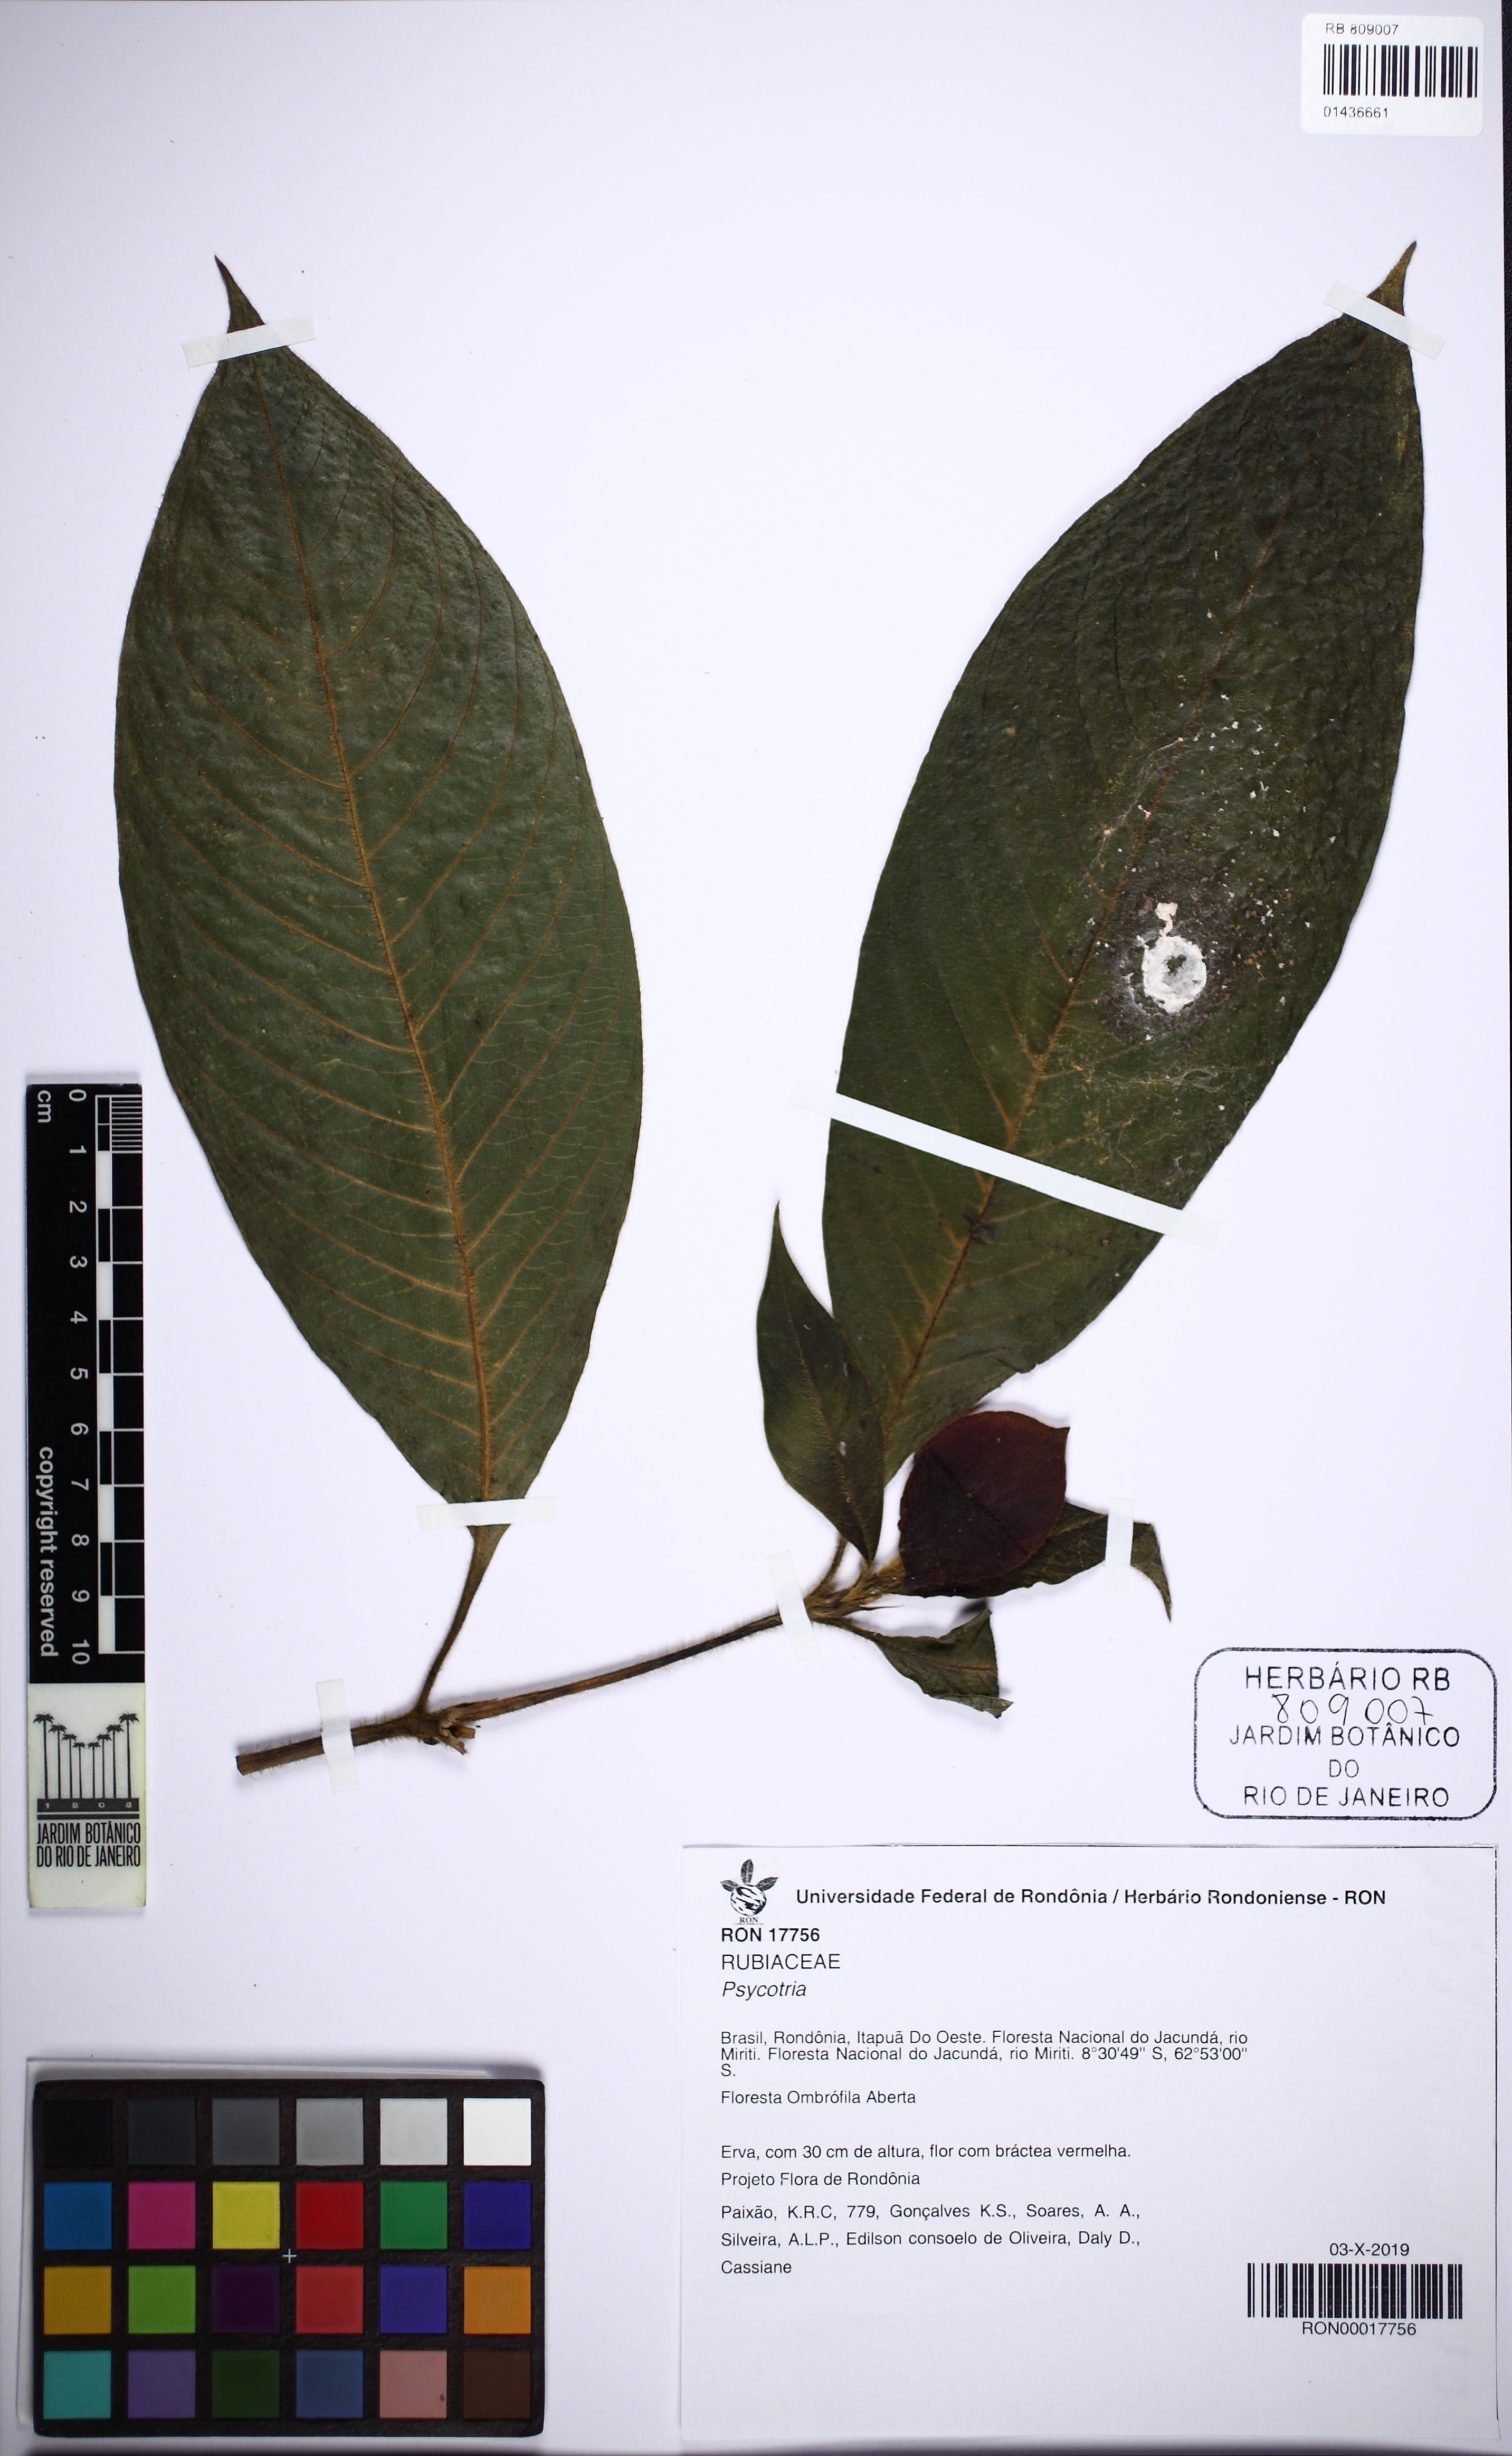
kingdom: Plantae
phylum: Tracheophyta
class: Magnoliopsida
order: Gentianales
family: Rubiaceae
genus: Palicourea
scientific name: Palicourea tomentosa
